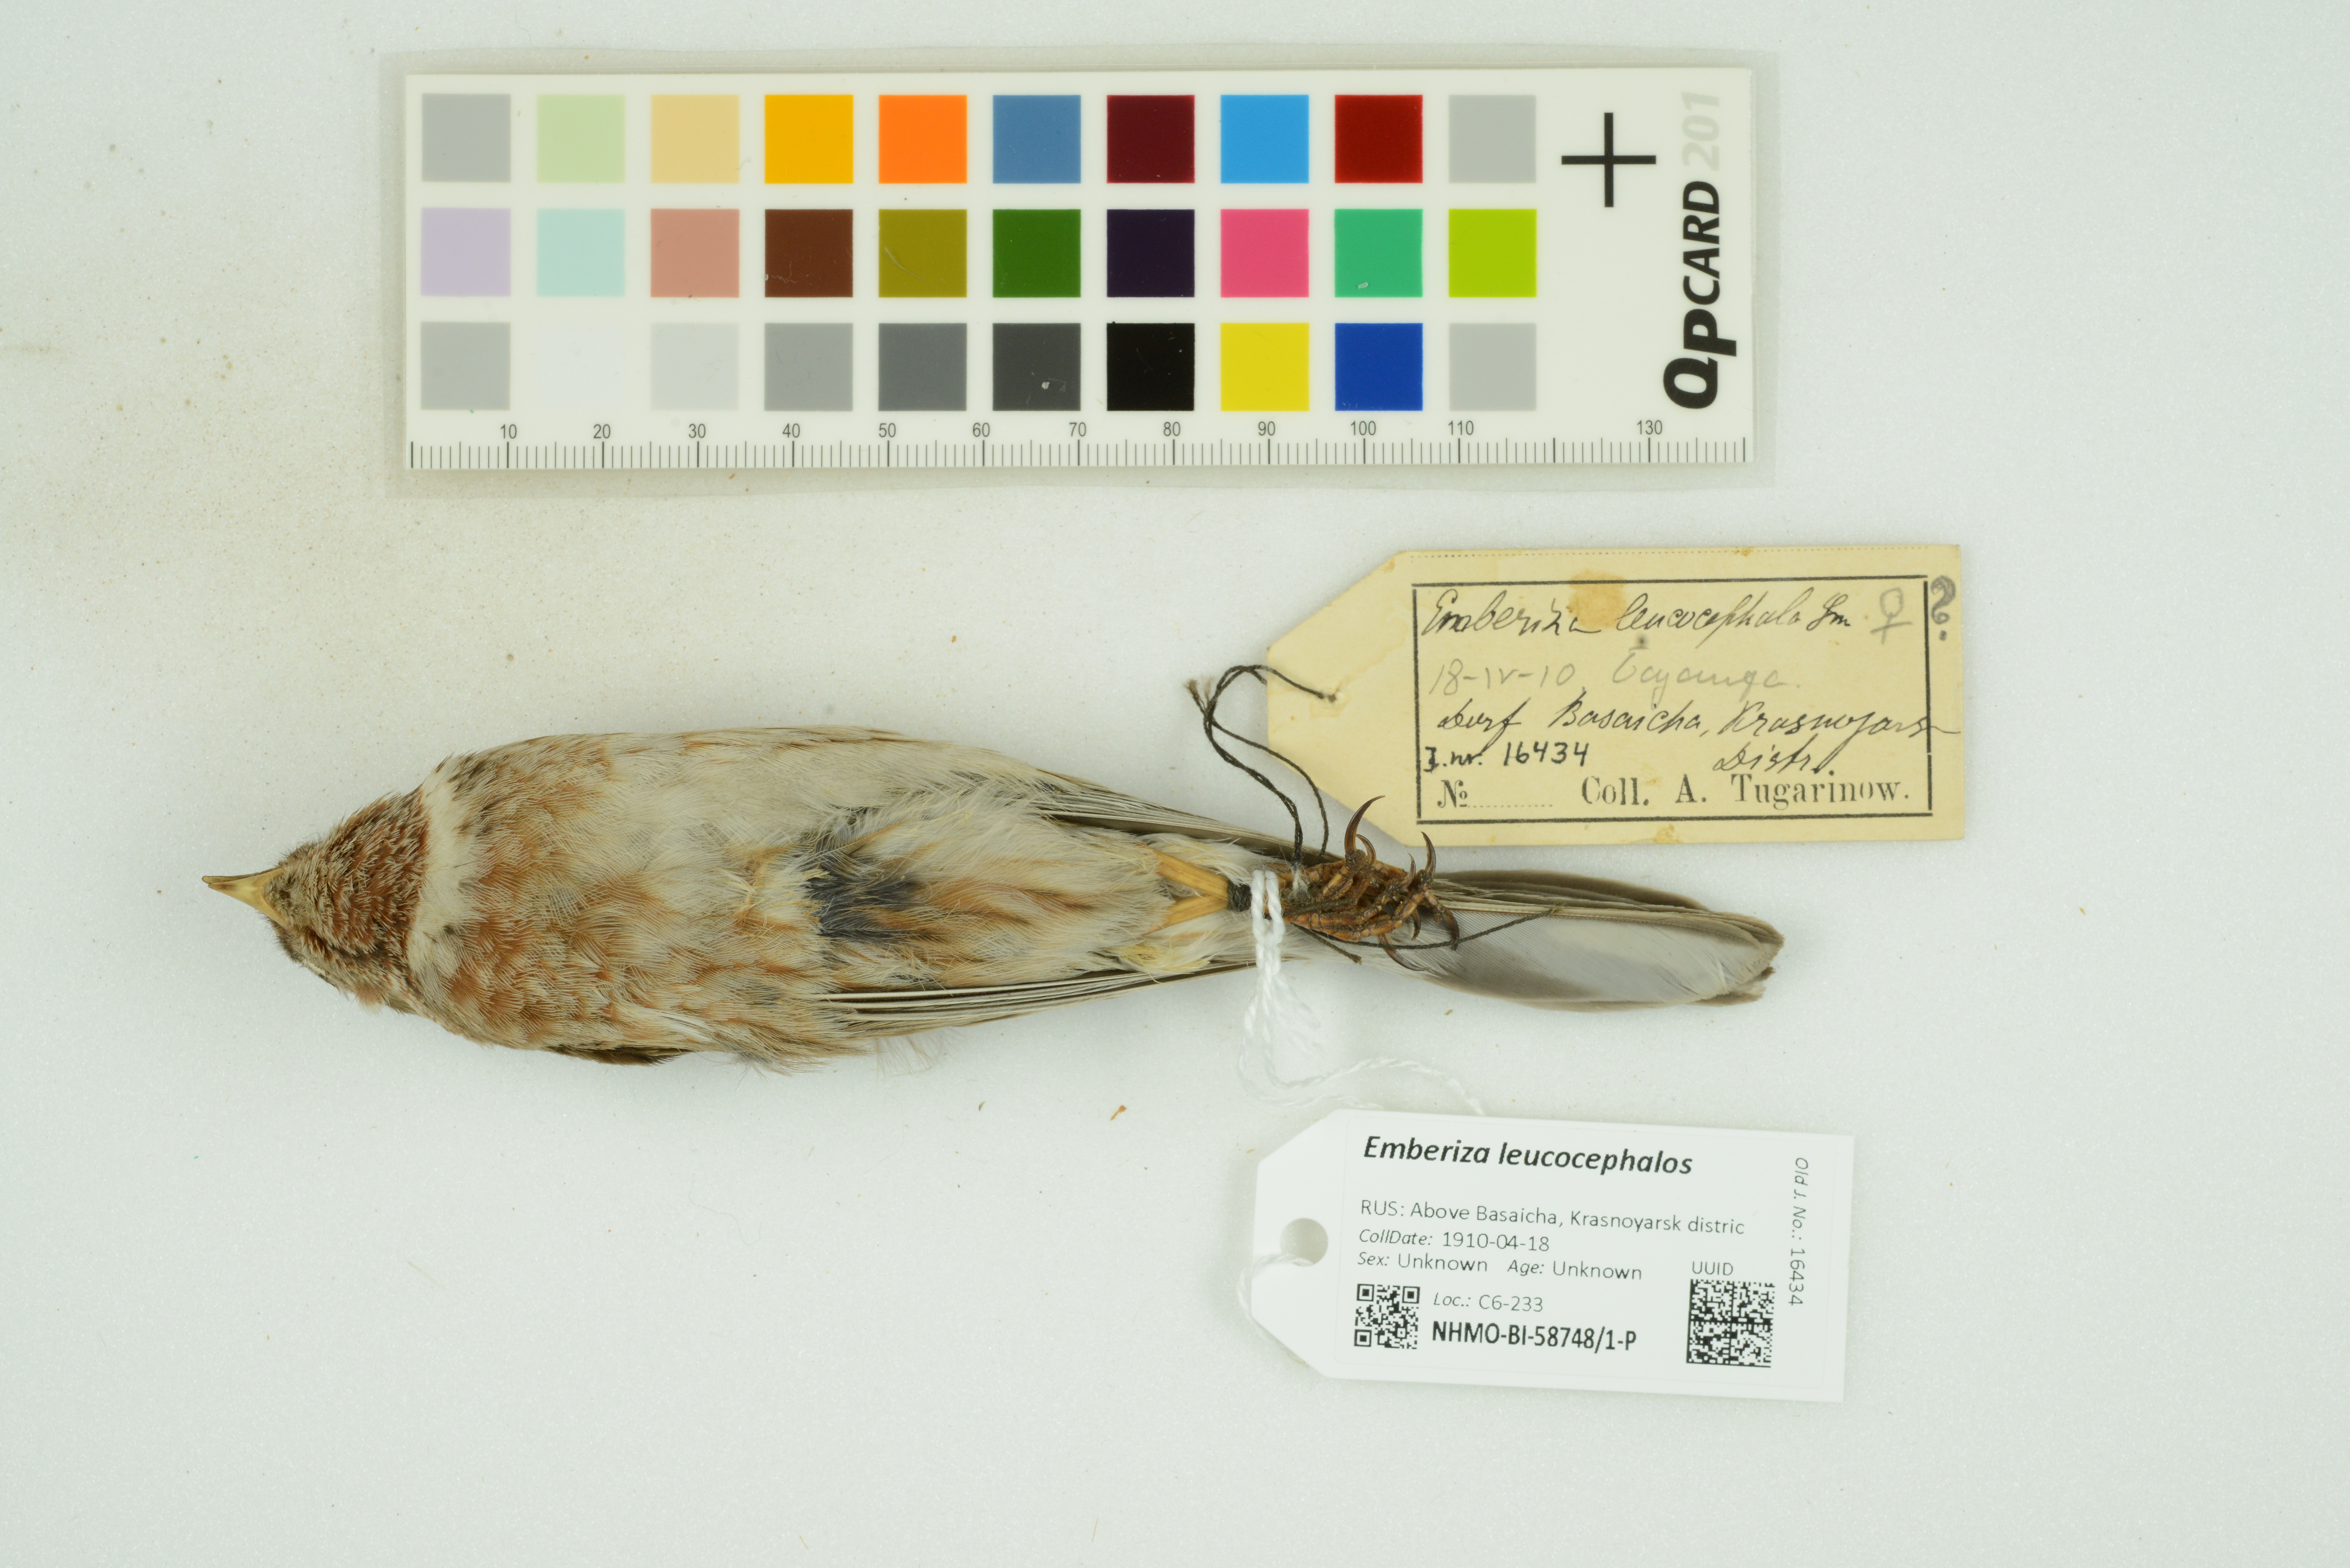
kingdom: Animalia
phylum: Chordata
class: Aves
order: Passeriformes
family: Emberizidae
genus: Emberiza
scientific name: Emberiza leucocephalos
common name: Pine bunting
